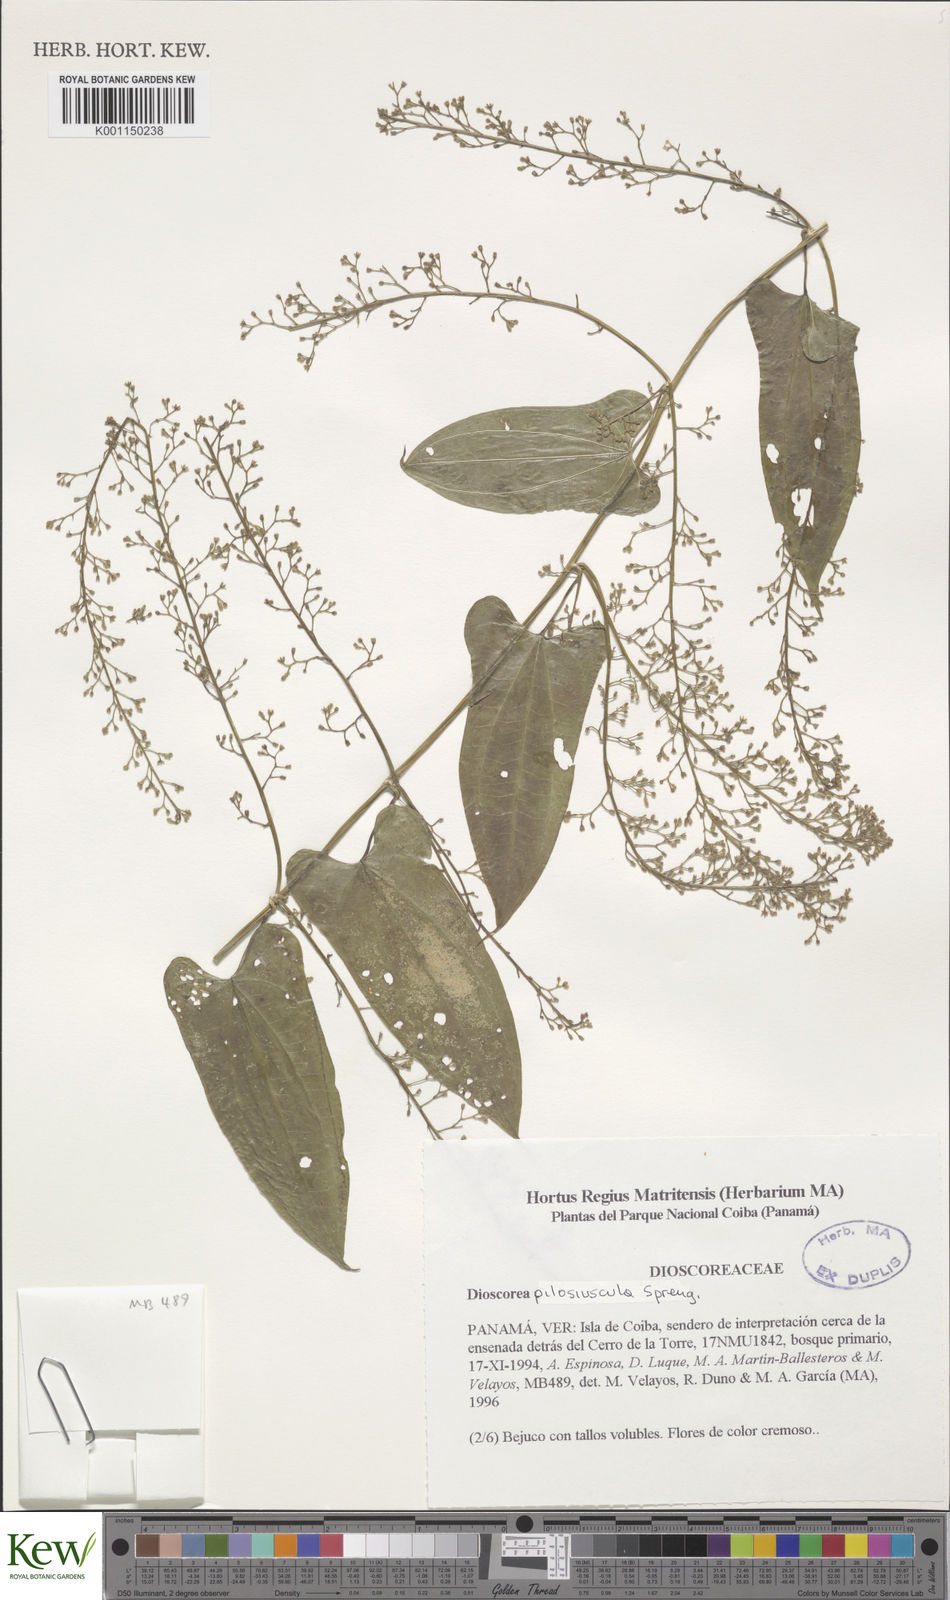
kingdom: Plantae
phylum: Tracheophyta
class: Liliopsida
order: Dioscoreales
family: Dioscoreaceae
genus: Dioscorea
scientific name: Dioscorea pilosiuscula
